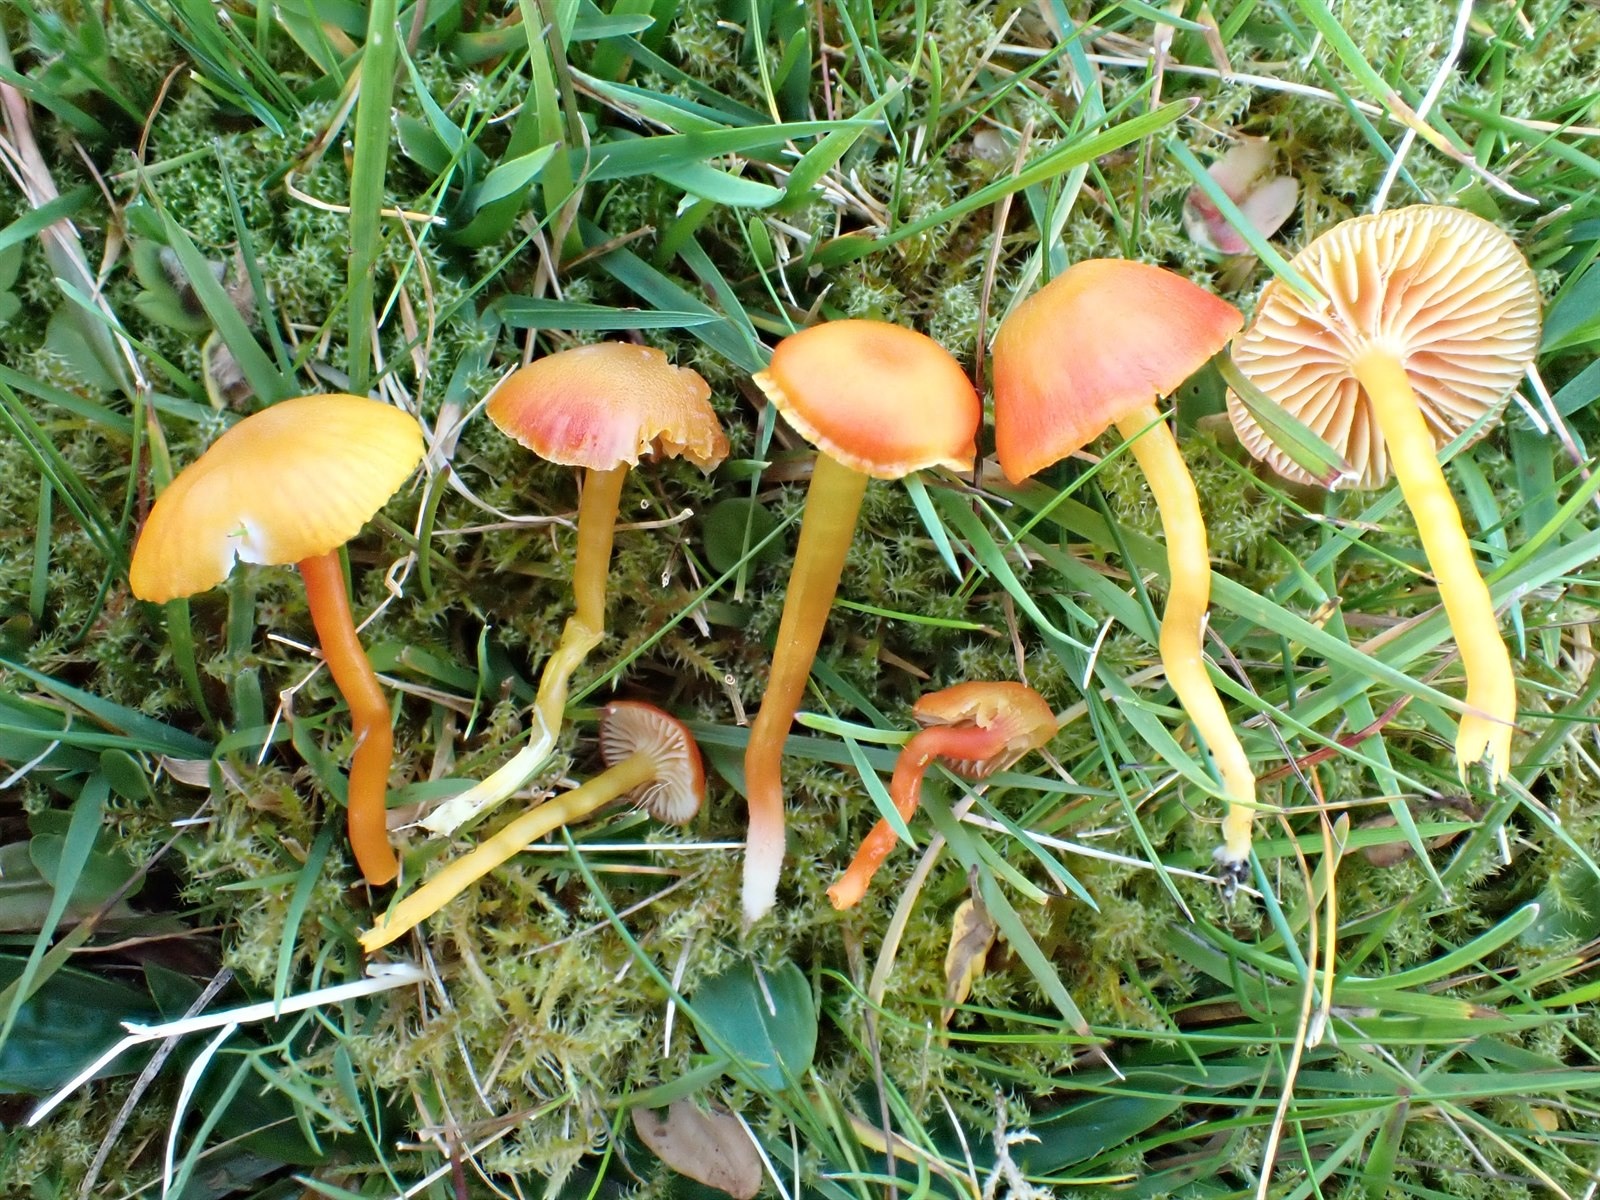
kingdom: Fungi
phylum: Basidiomycota
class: Agaricomycetes
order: Agaricales
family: Hygrophoraceae
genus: Hygrocybe
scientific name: Hygrocybe insipida
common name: Spangle waxcap
